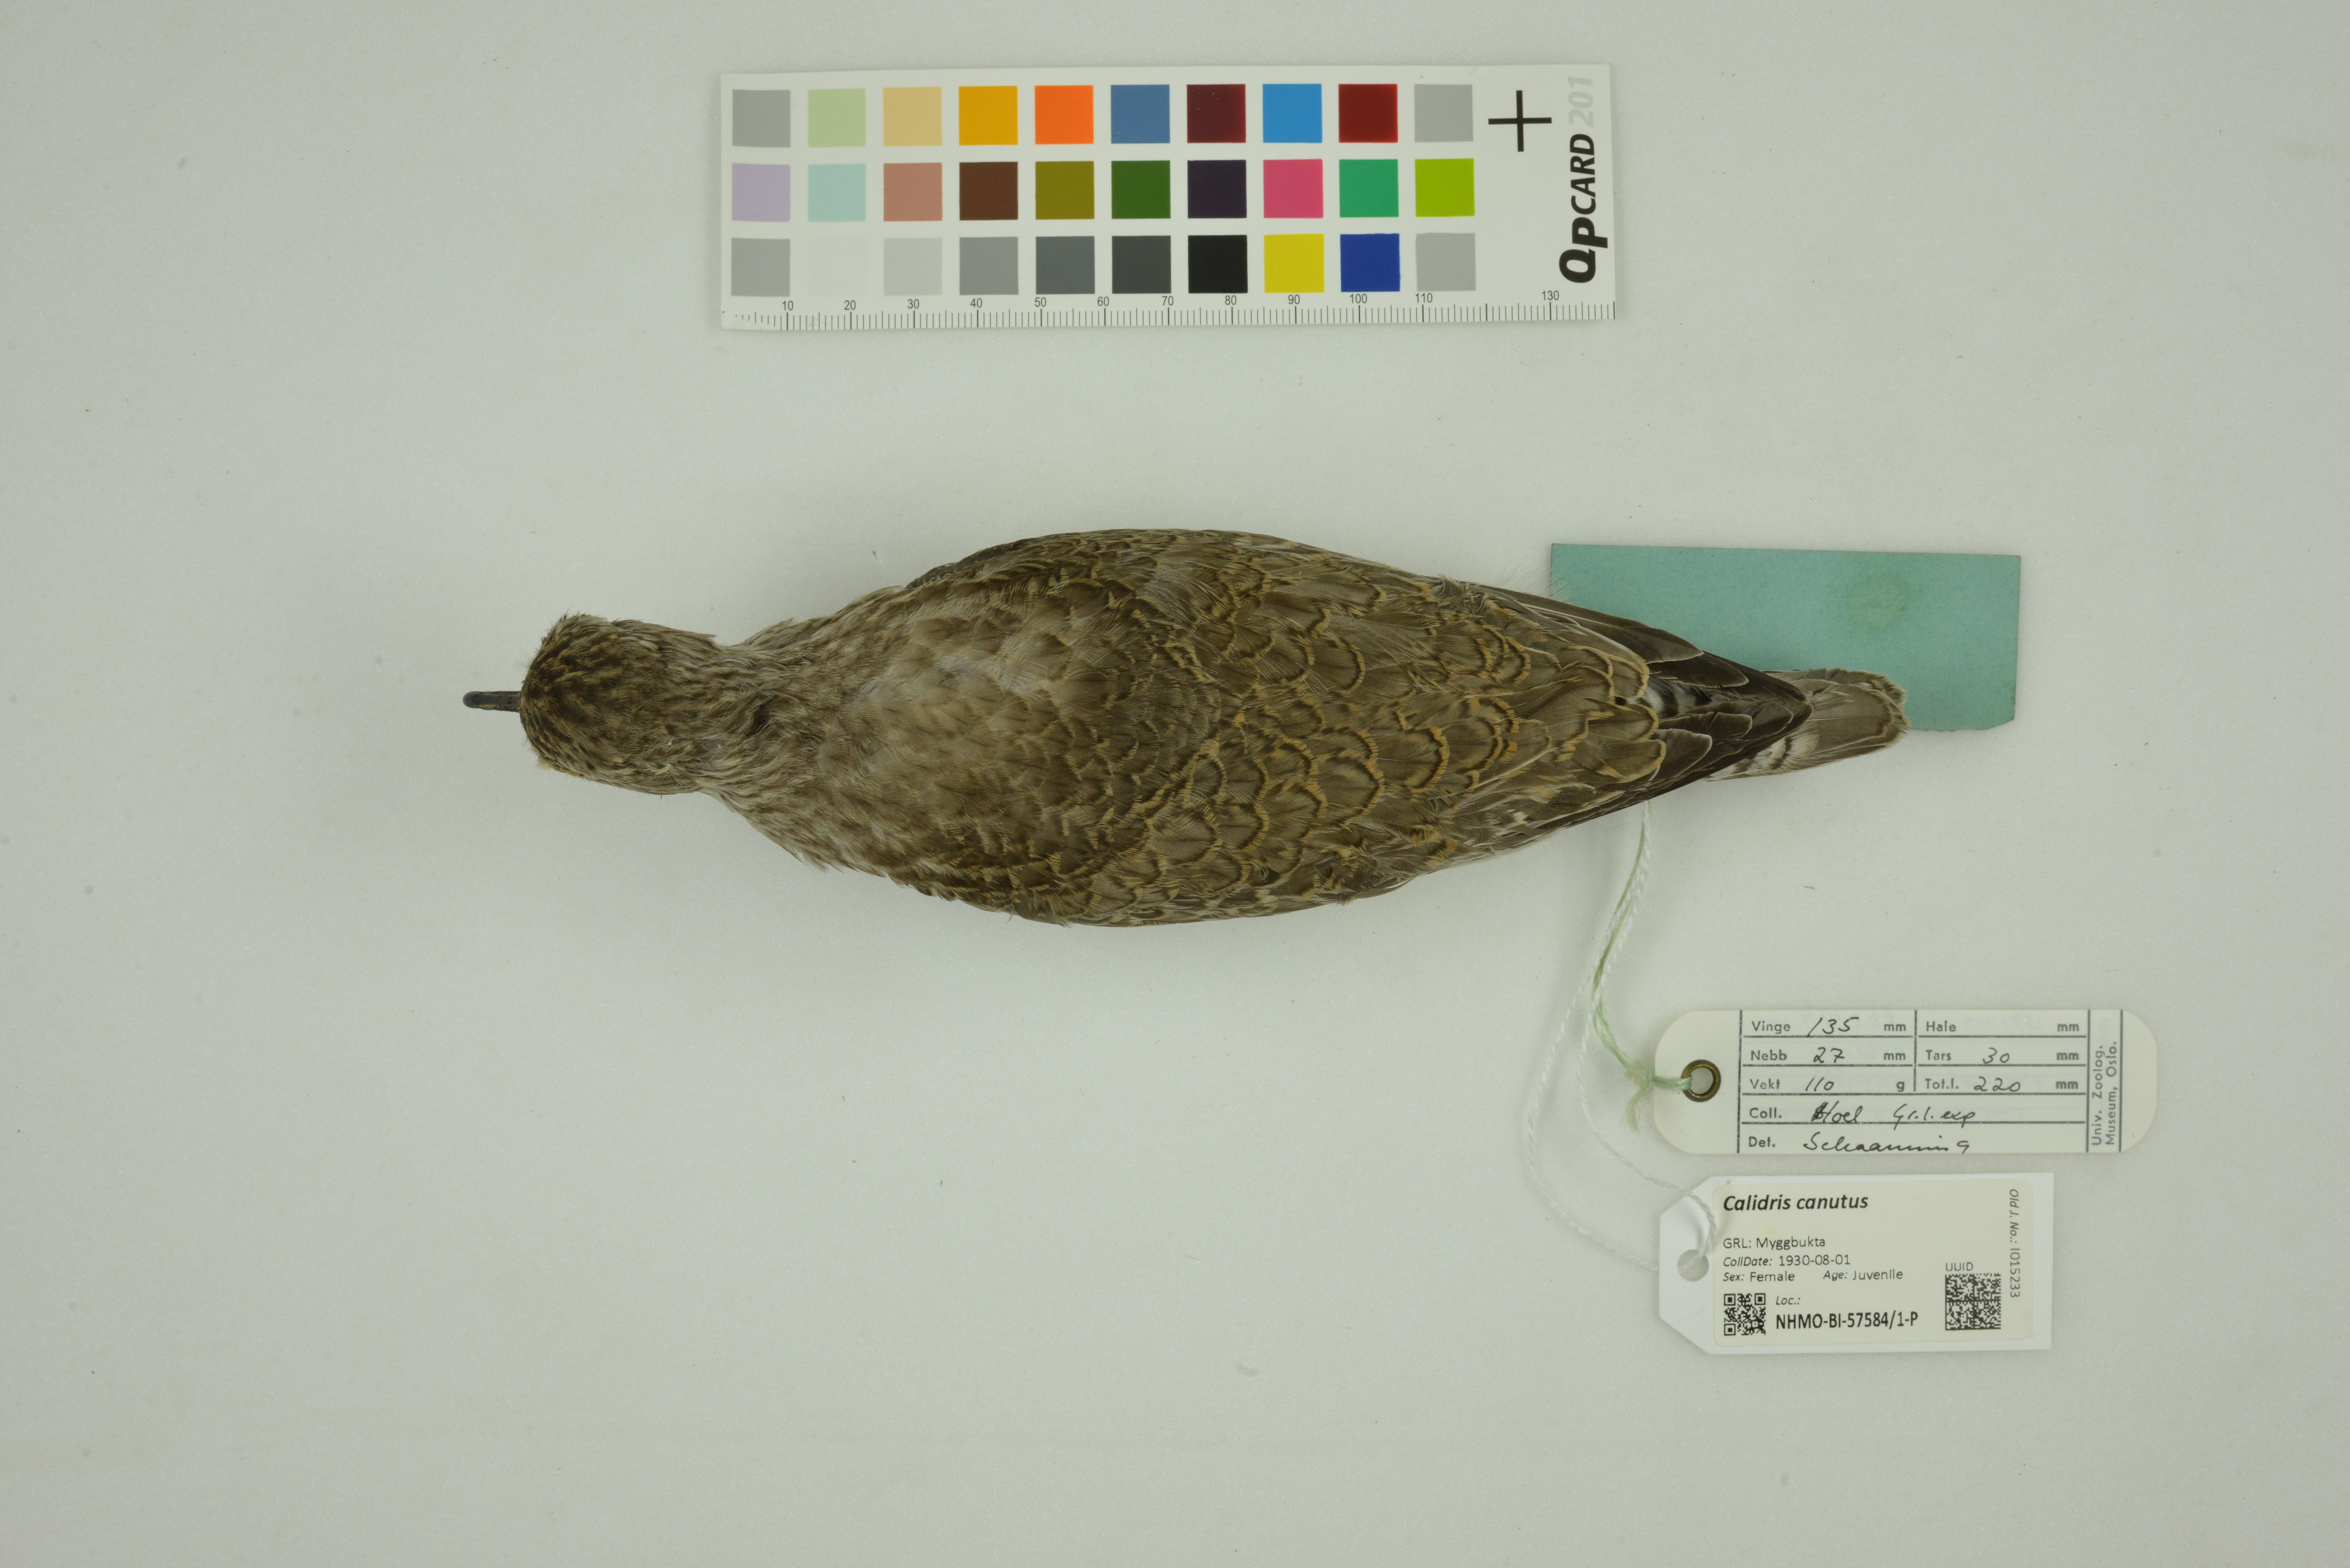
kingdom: Animalia
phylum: Chordata
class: Aves
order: Charadriiformes
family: Scolopacidae
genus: Calidris
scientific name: Calidris canutus
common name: Red knot
